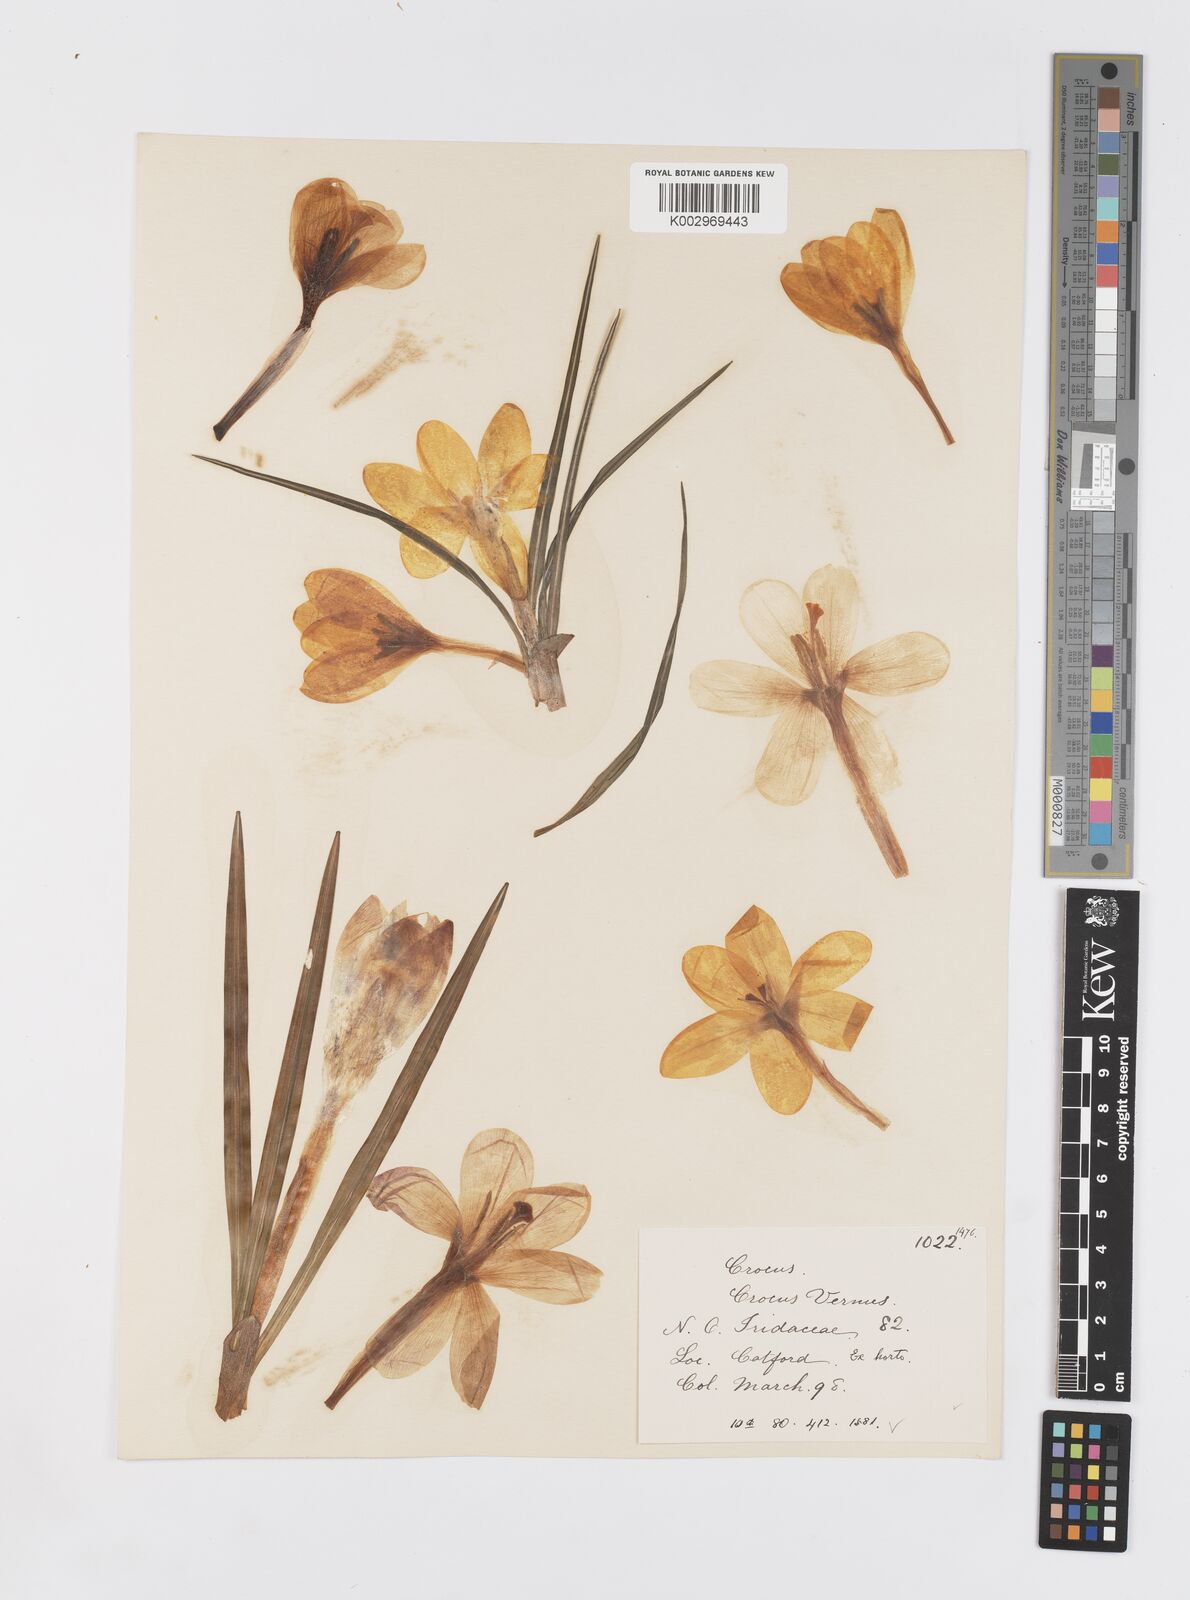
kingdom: Plantae
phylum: Tracheophyta
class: Liliopsida
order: Asparagales
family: Iridaceae
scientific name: Iridaceae
